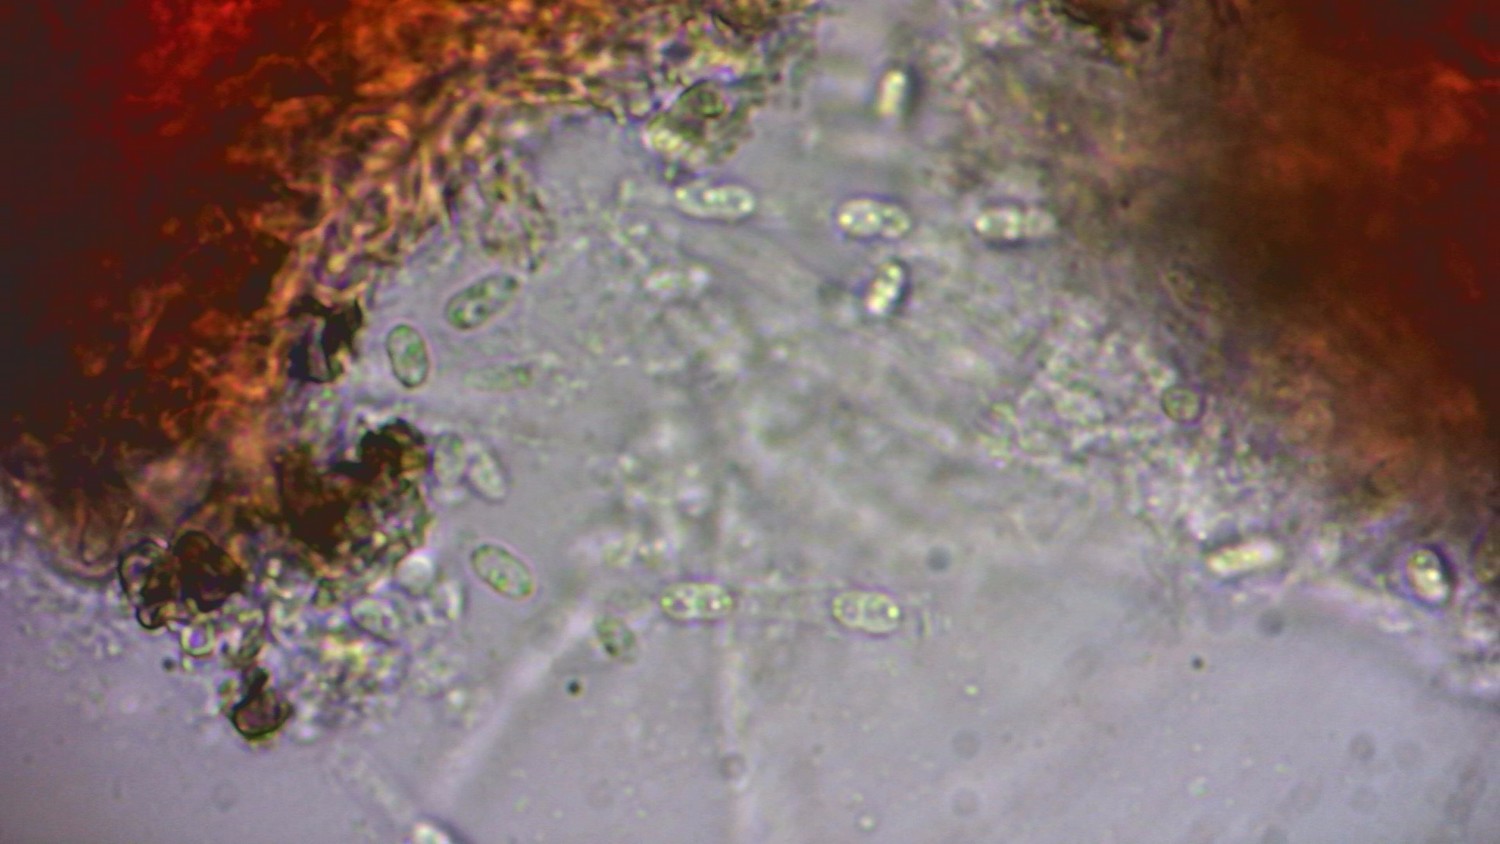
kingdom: Fungi
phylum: Ascomycota
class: Sordariomycetes
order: Hypocreales
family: Nectriaceae
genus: Dialonectria
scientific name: Dialonectria episphaeria
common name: kulskorpe-cinnobersvamp
